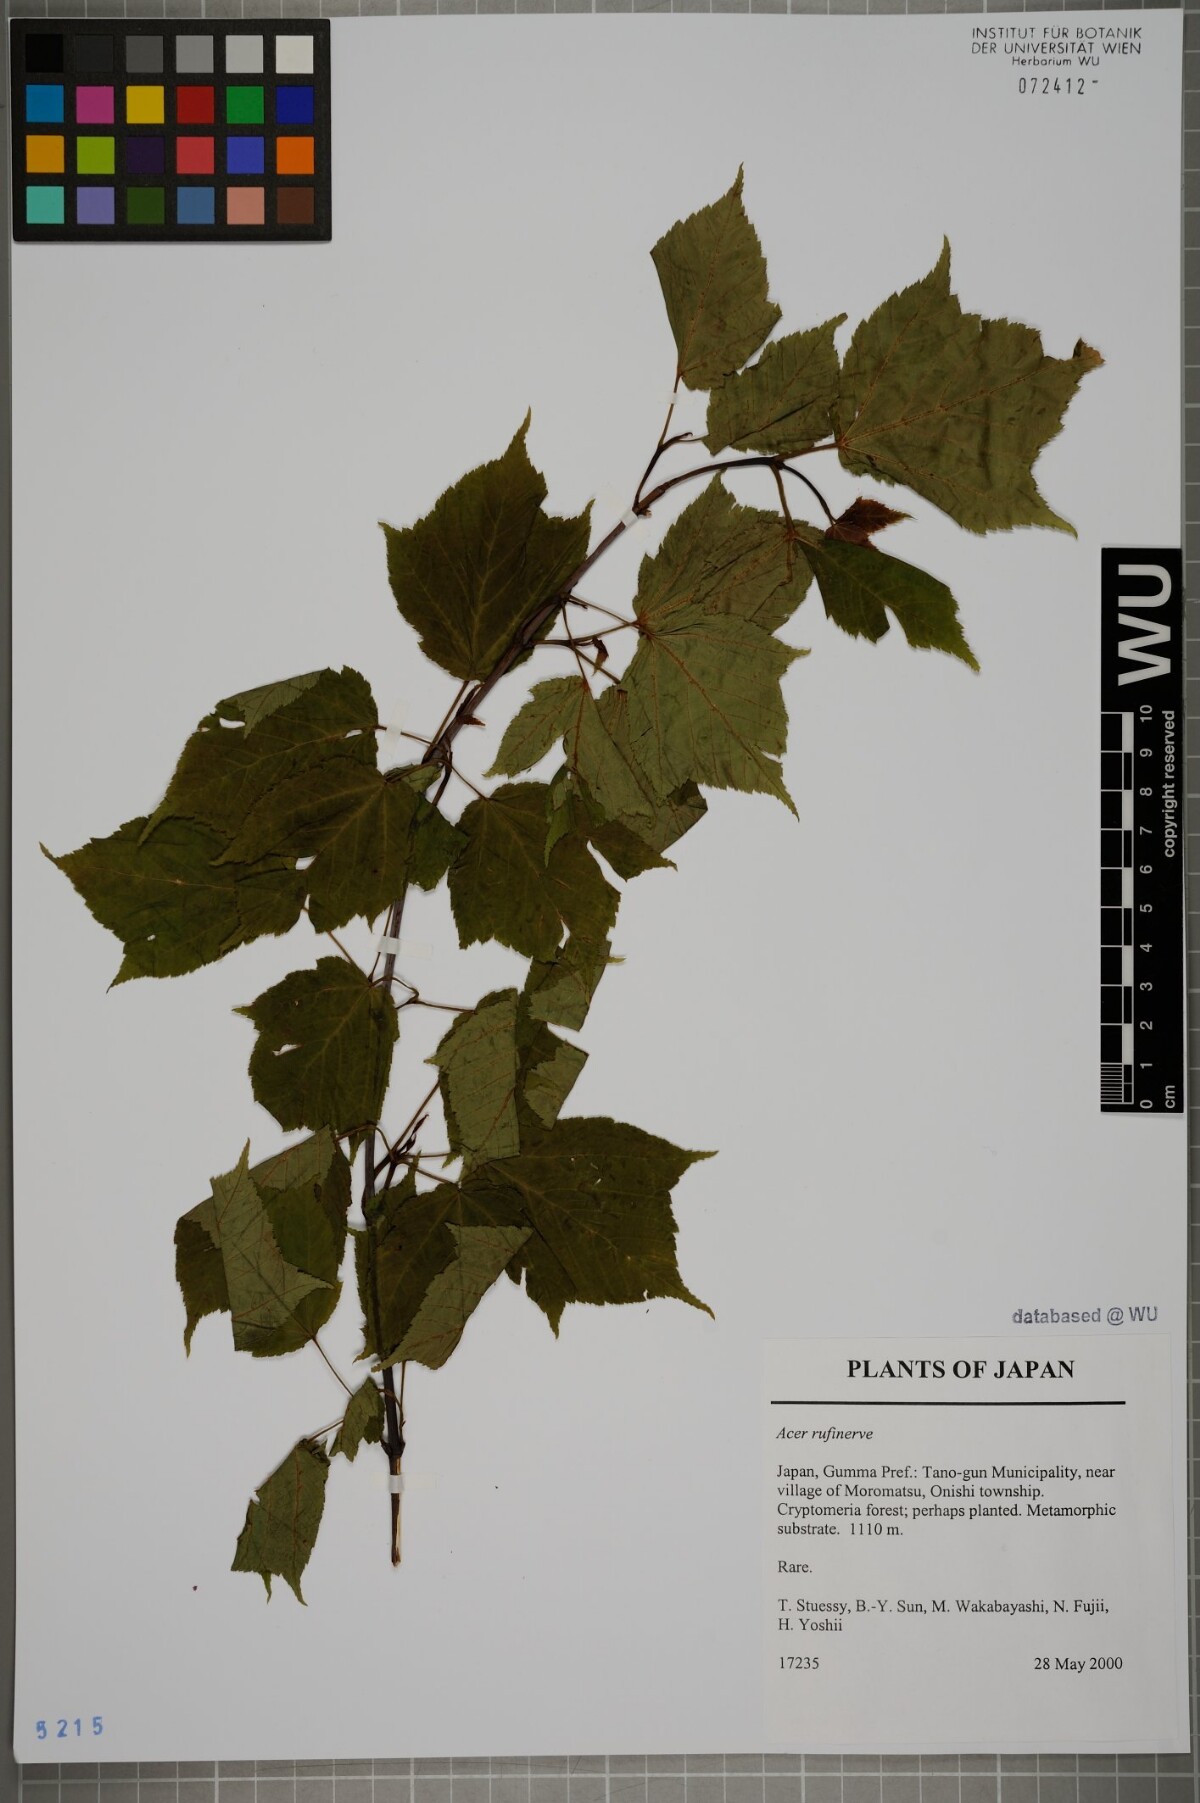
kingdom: Plantae
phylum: Tracheophyta
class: Magnoliopsida
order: Sapindales
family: Sapindaceae
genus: Acer
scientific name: Acer rufinerve
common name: Red veined maple
